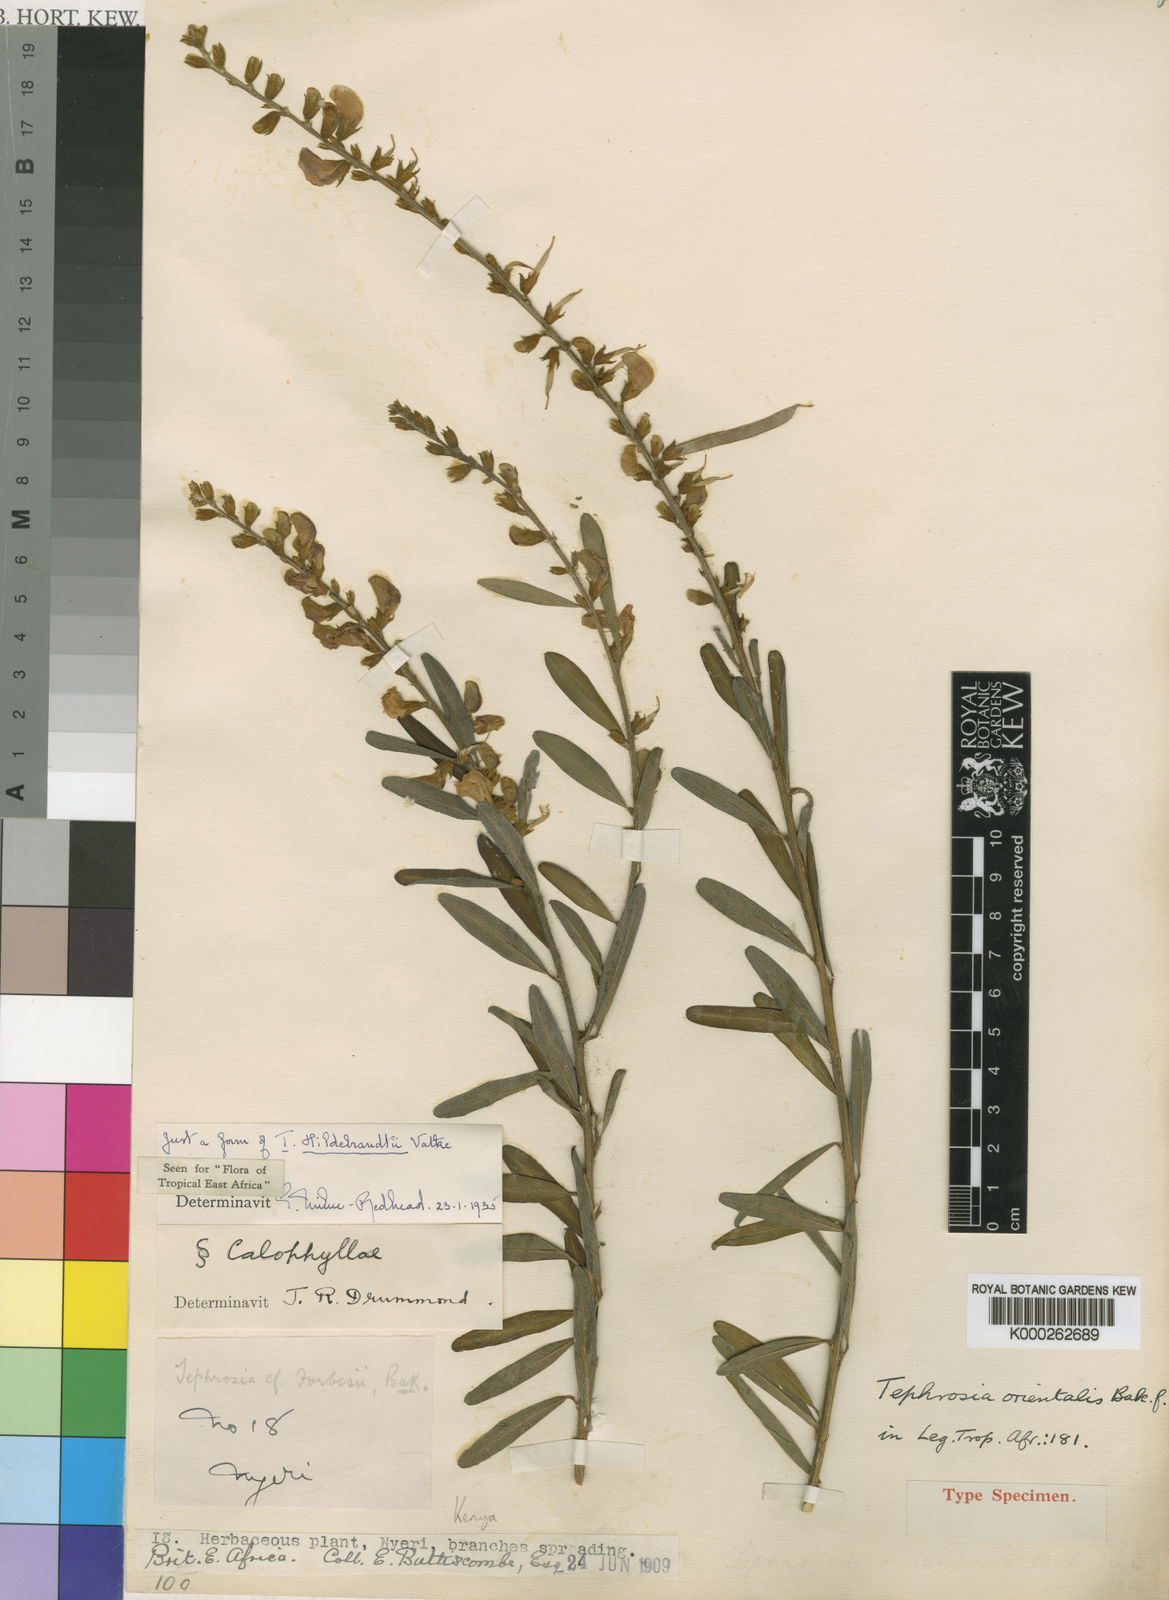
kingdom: Plantae
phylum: Tracheophyta
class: Magnoliopsida
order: Fabales
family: Fabaceae
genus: Tephrosia
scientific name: Tephrosia hildebrandtii
